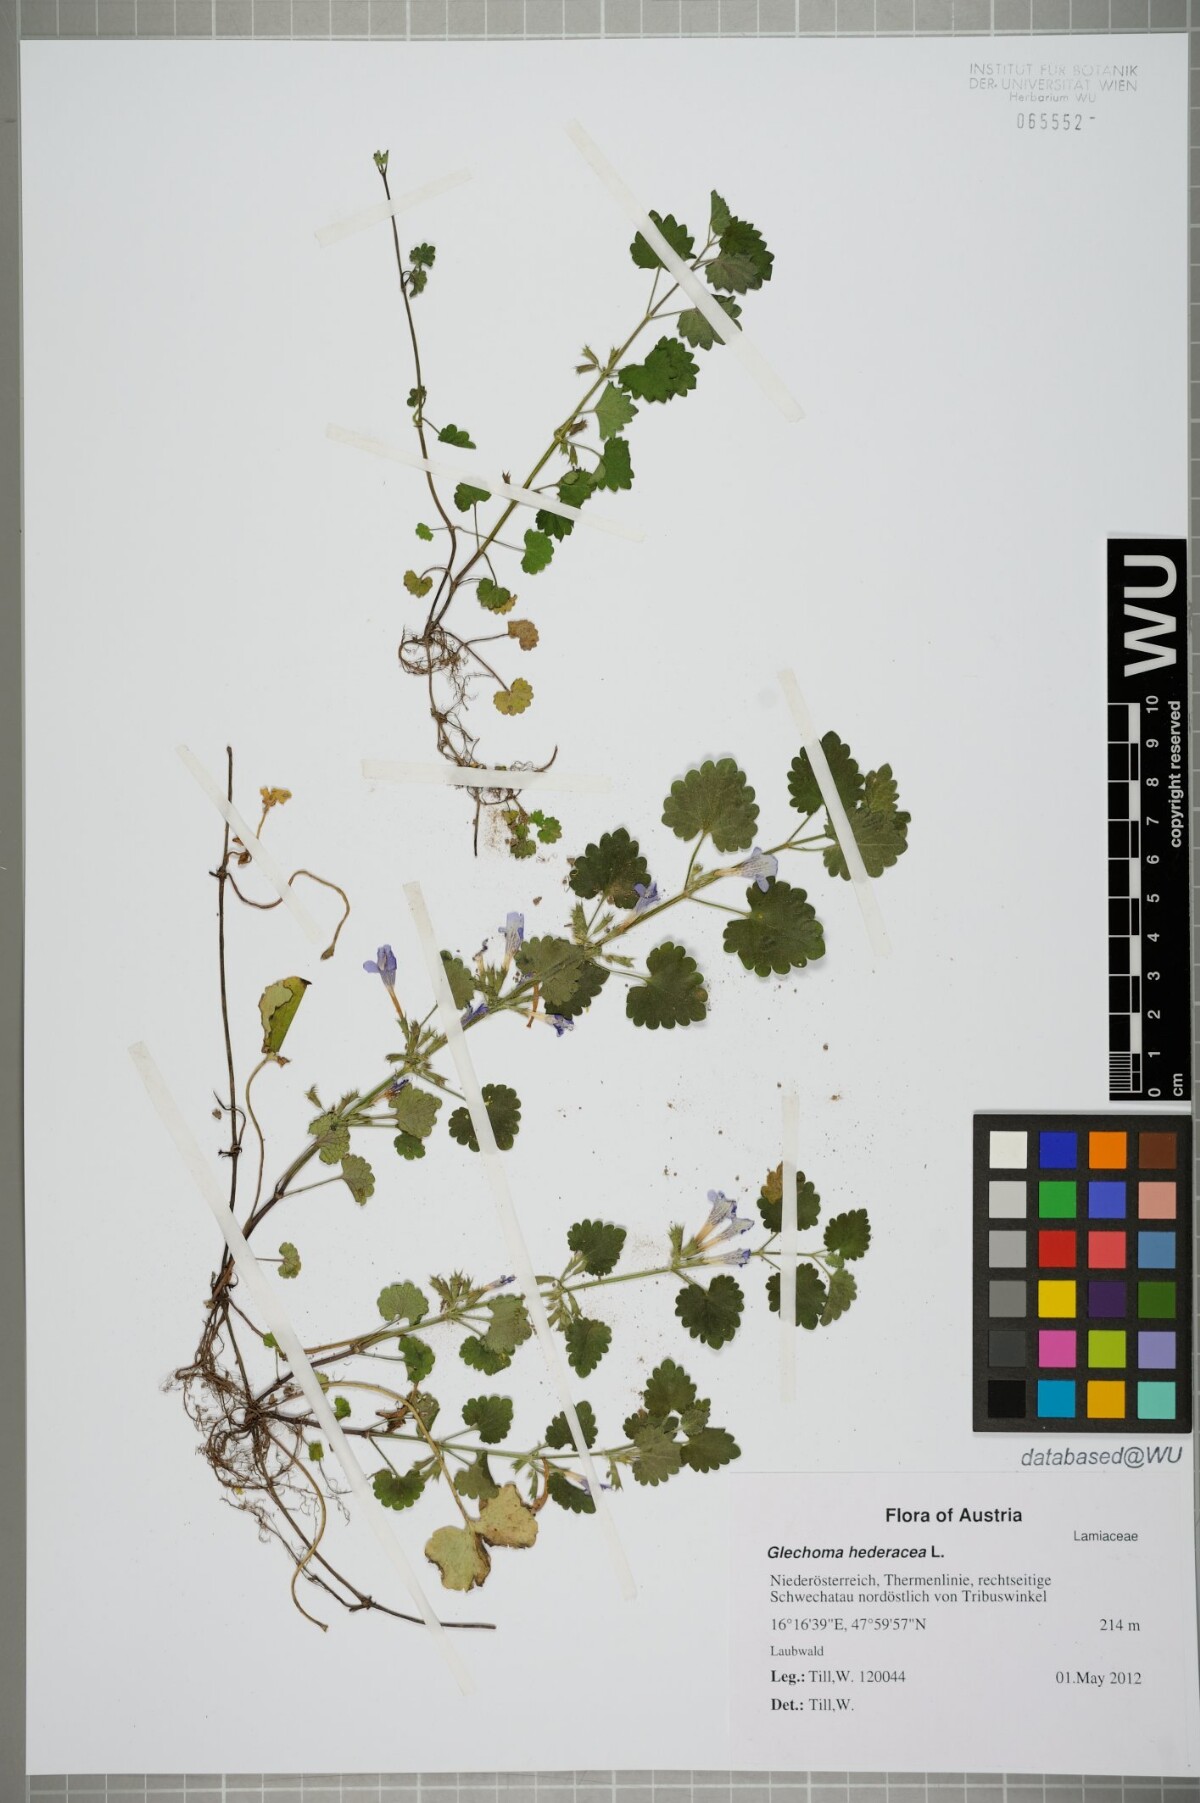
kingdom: Plantae
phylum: Tracheophyta
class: Magnoliopsida
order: Lamiales
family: Lamiaceae
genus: Glechoma
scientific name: Glechoma hederacea
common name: Ground ivy
